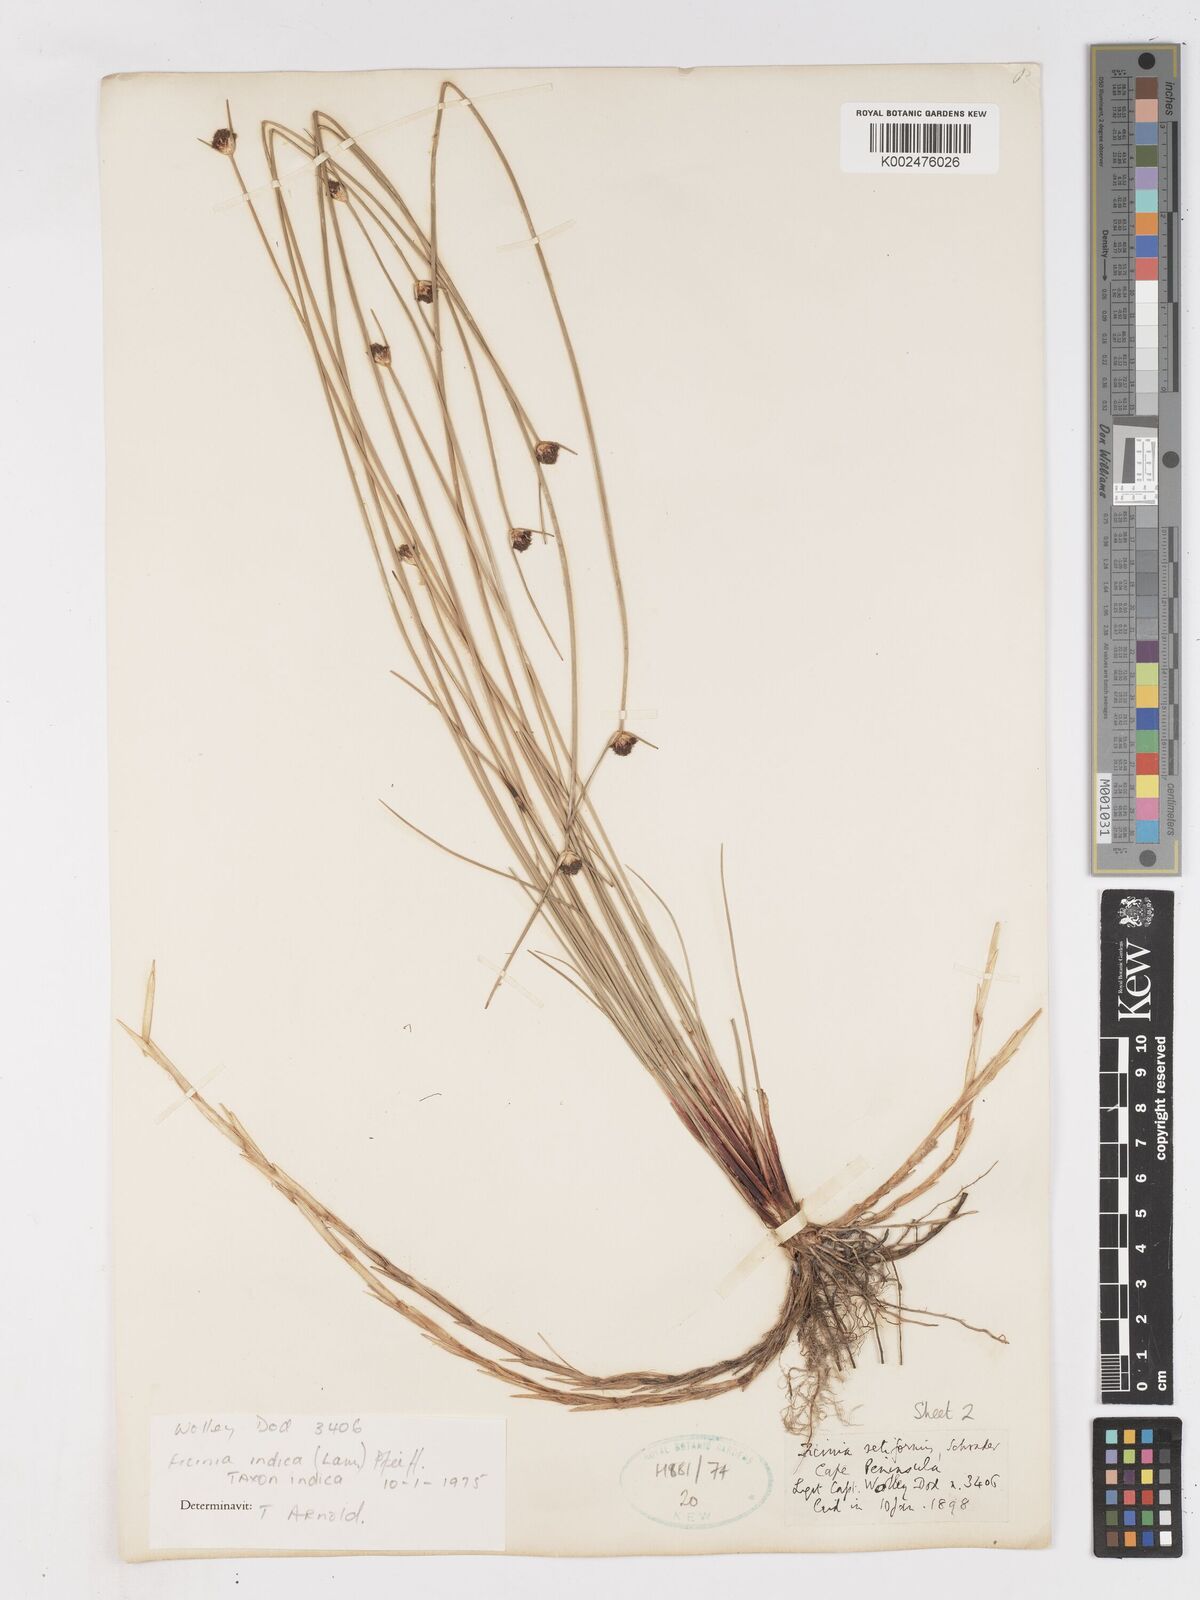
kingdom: Plantae
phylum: Tracheophyta
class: Liliopsida
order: Poales
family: Cyperaceae
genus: Ficinia
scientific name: Ficinia indica
